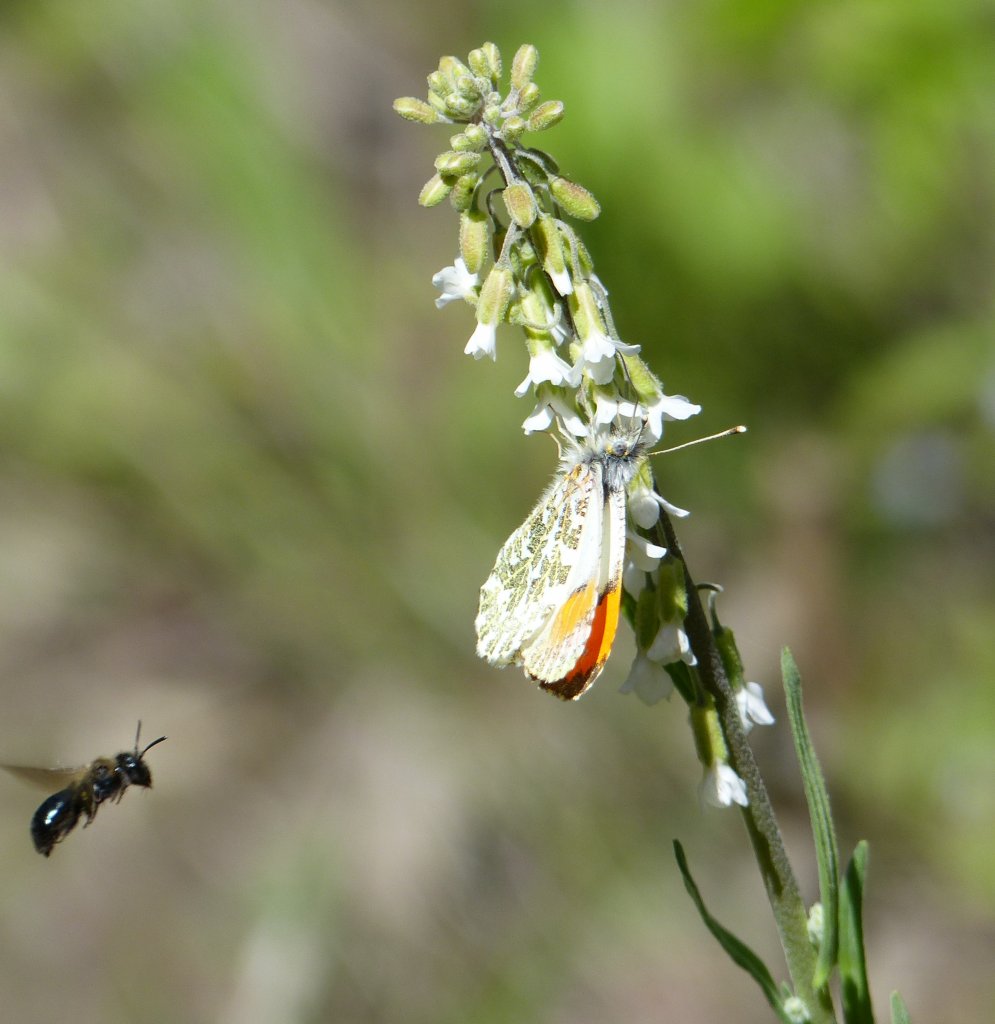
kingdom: Animalia
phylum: Arthropoda
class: Insecta
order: Lepidoptera
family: Pieridae
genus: Anthocharis
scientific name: Anthocharis sara
